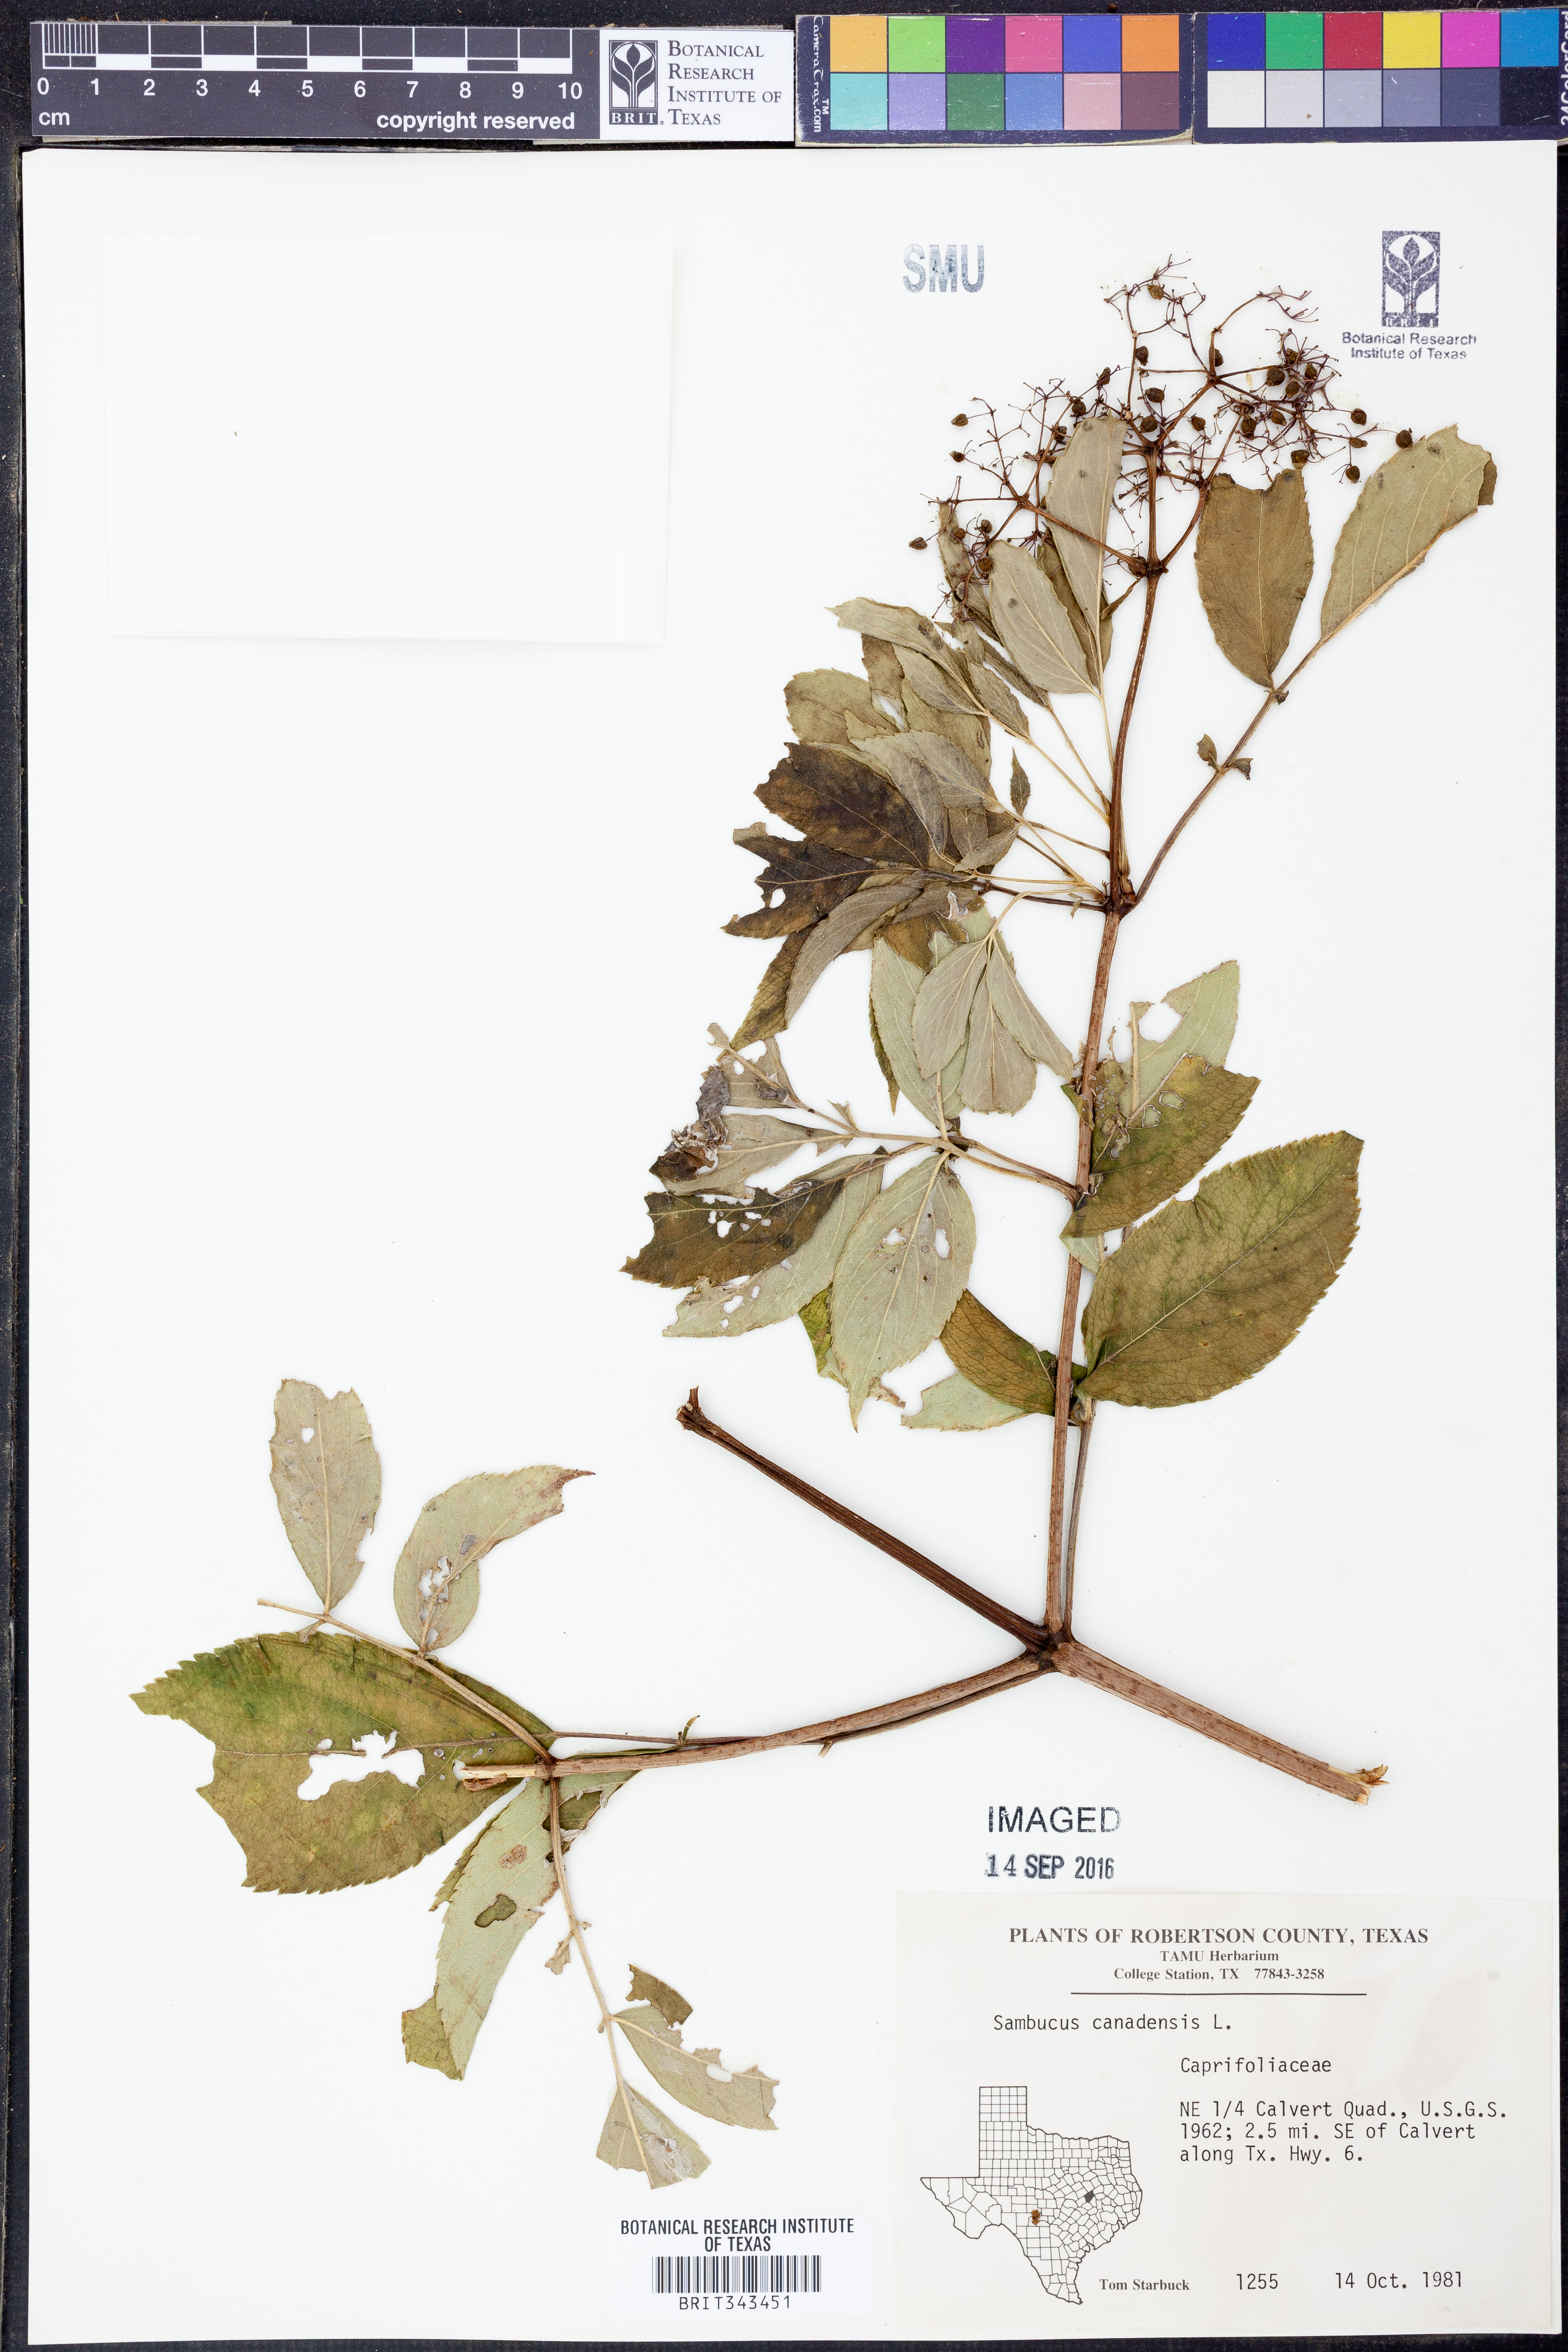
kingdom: Plantae
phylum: Tracheophyta
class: Magnoliopsida
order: Dipsacales
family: Viburnaceae
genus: Sambucus
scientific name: Sambucus canadensis
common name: American elder
